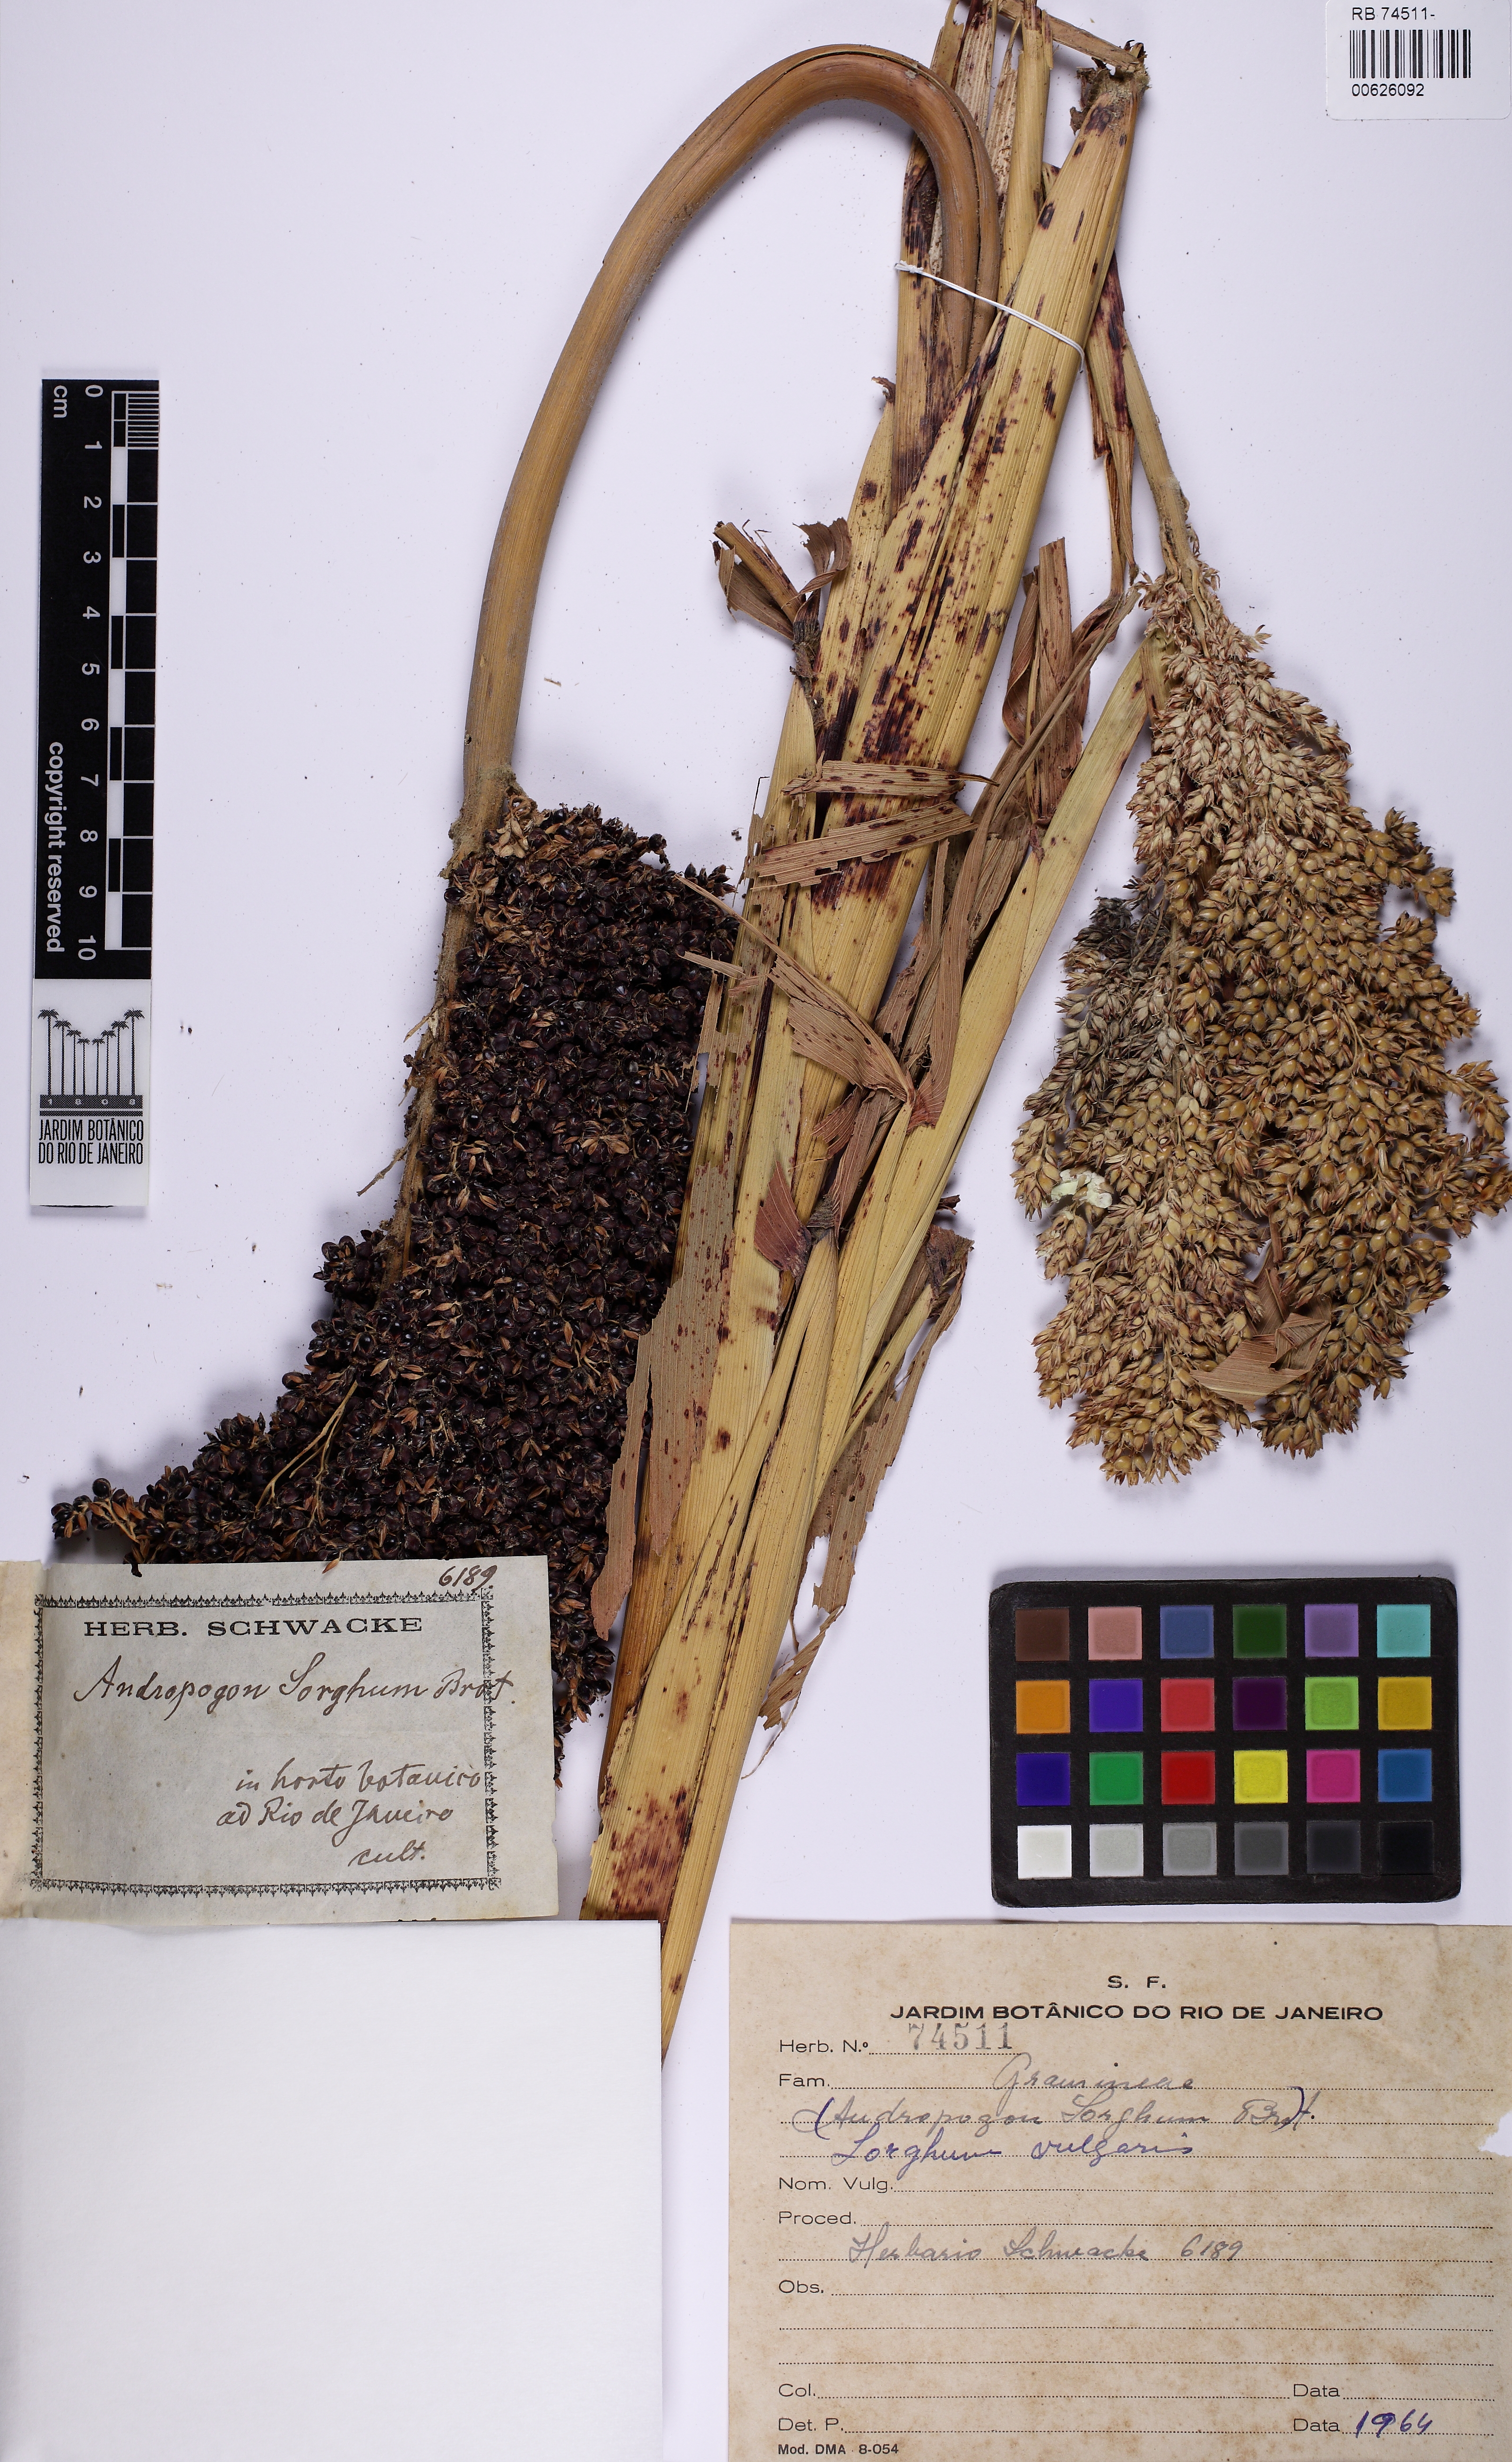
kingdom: Plantae
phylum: Tracheophyta
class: Liliopsida
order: Poales
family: Poaceae
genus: Sorghum
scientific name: Sorghum bicolor
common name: Sorghum
